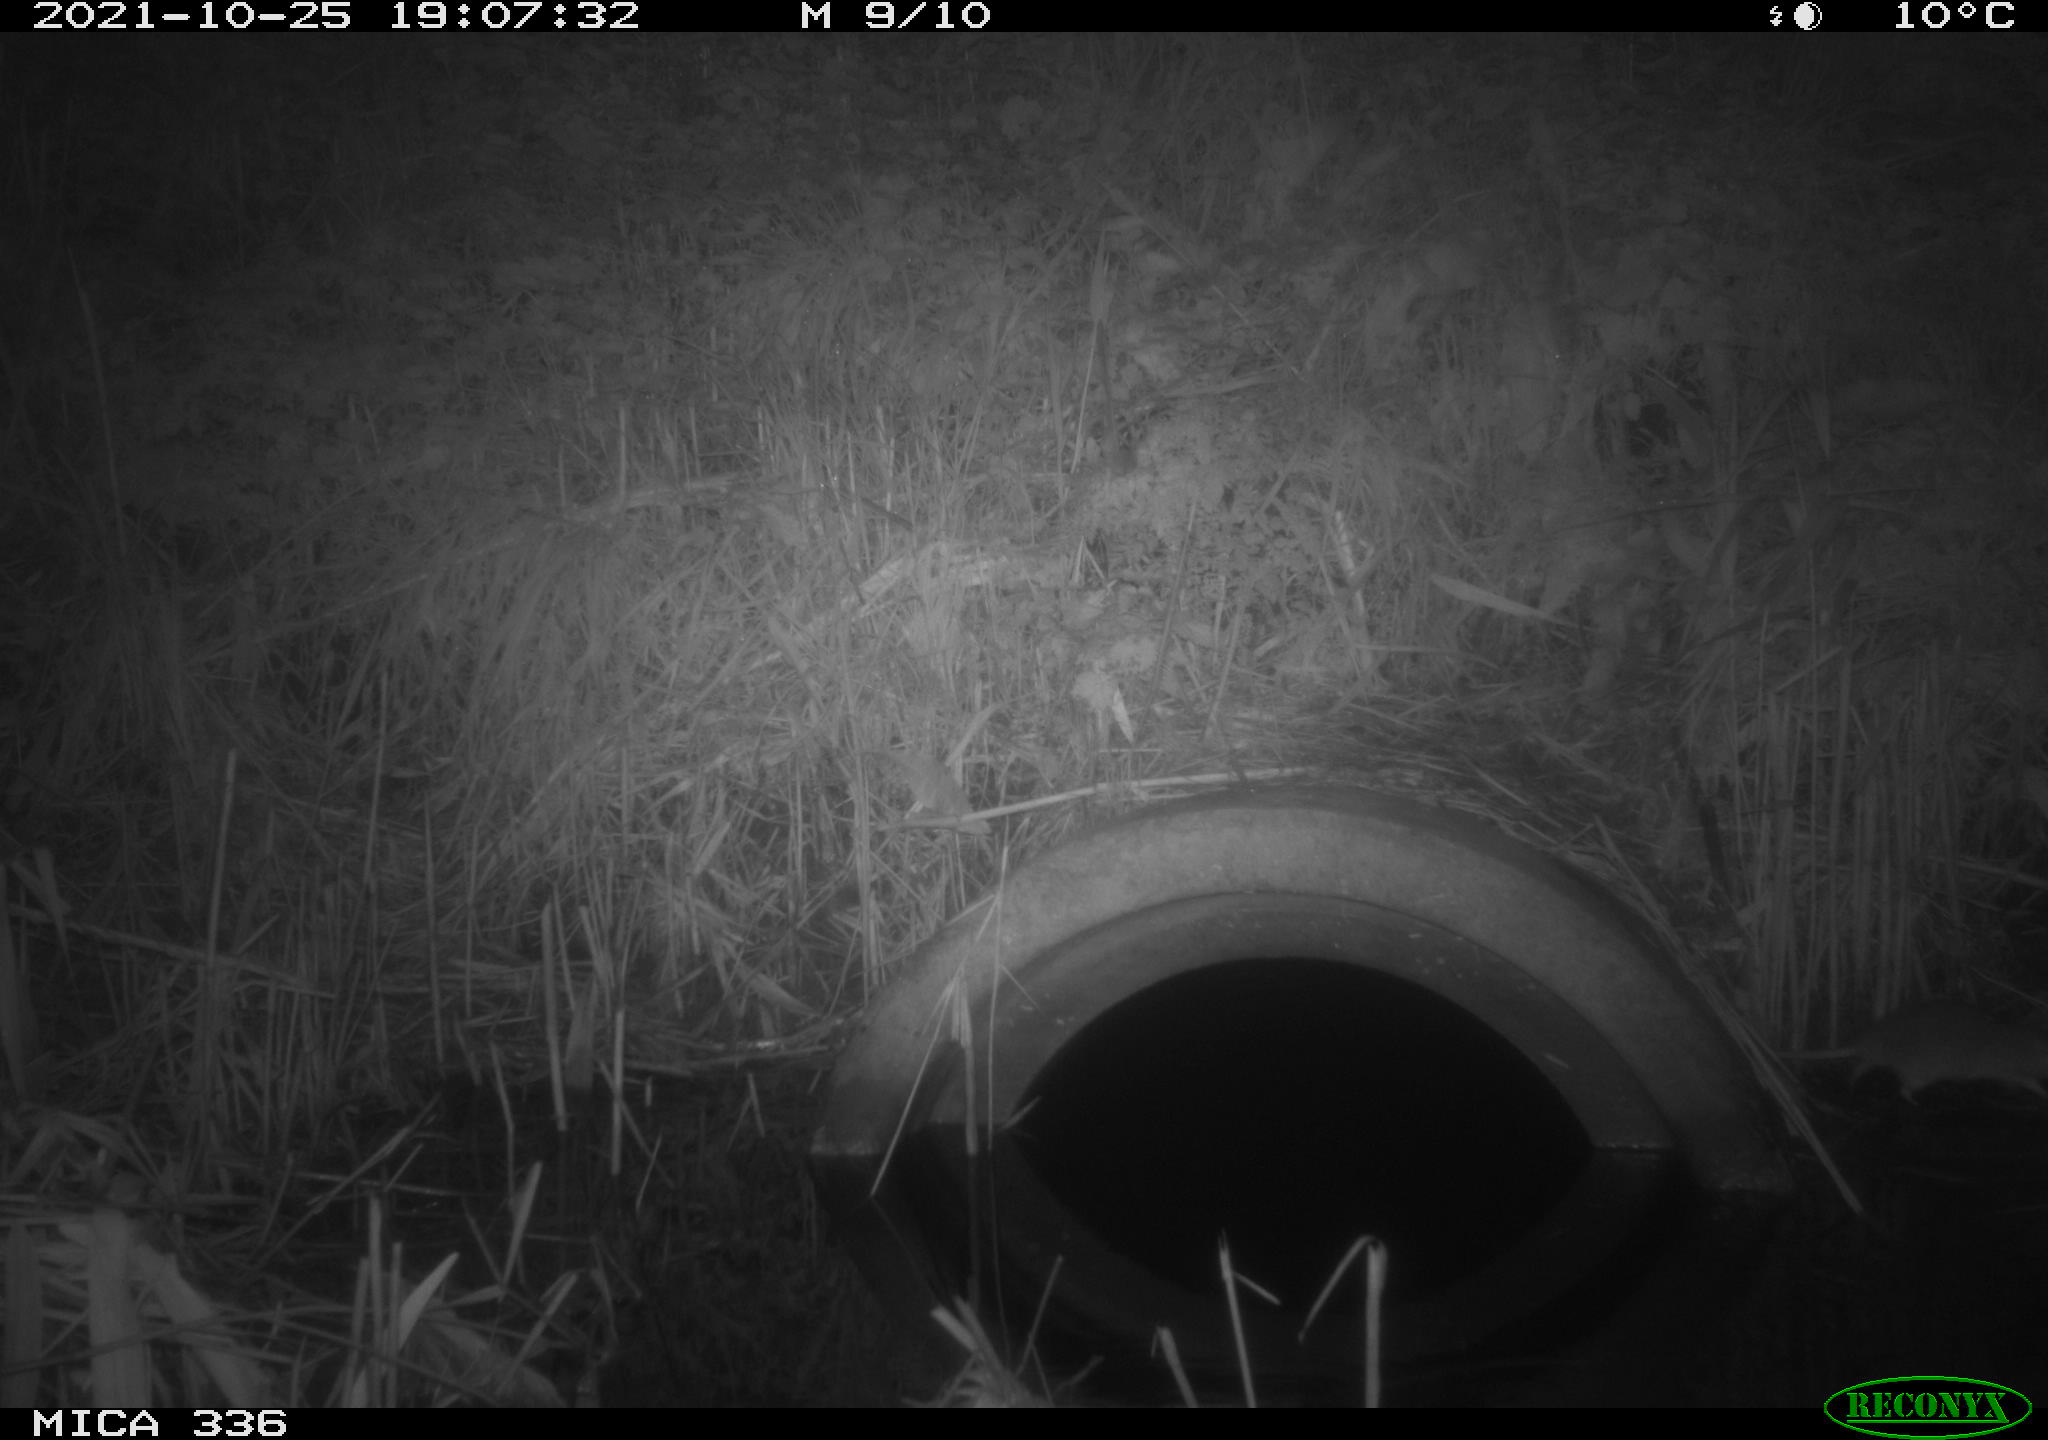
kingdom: Animalia
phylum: Chordata
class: Mammalia
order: Rodentia
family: Muridae
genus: Rattus
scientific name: Rattus norvegicus
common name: Brown rat
